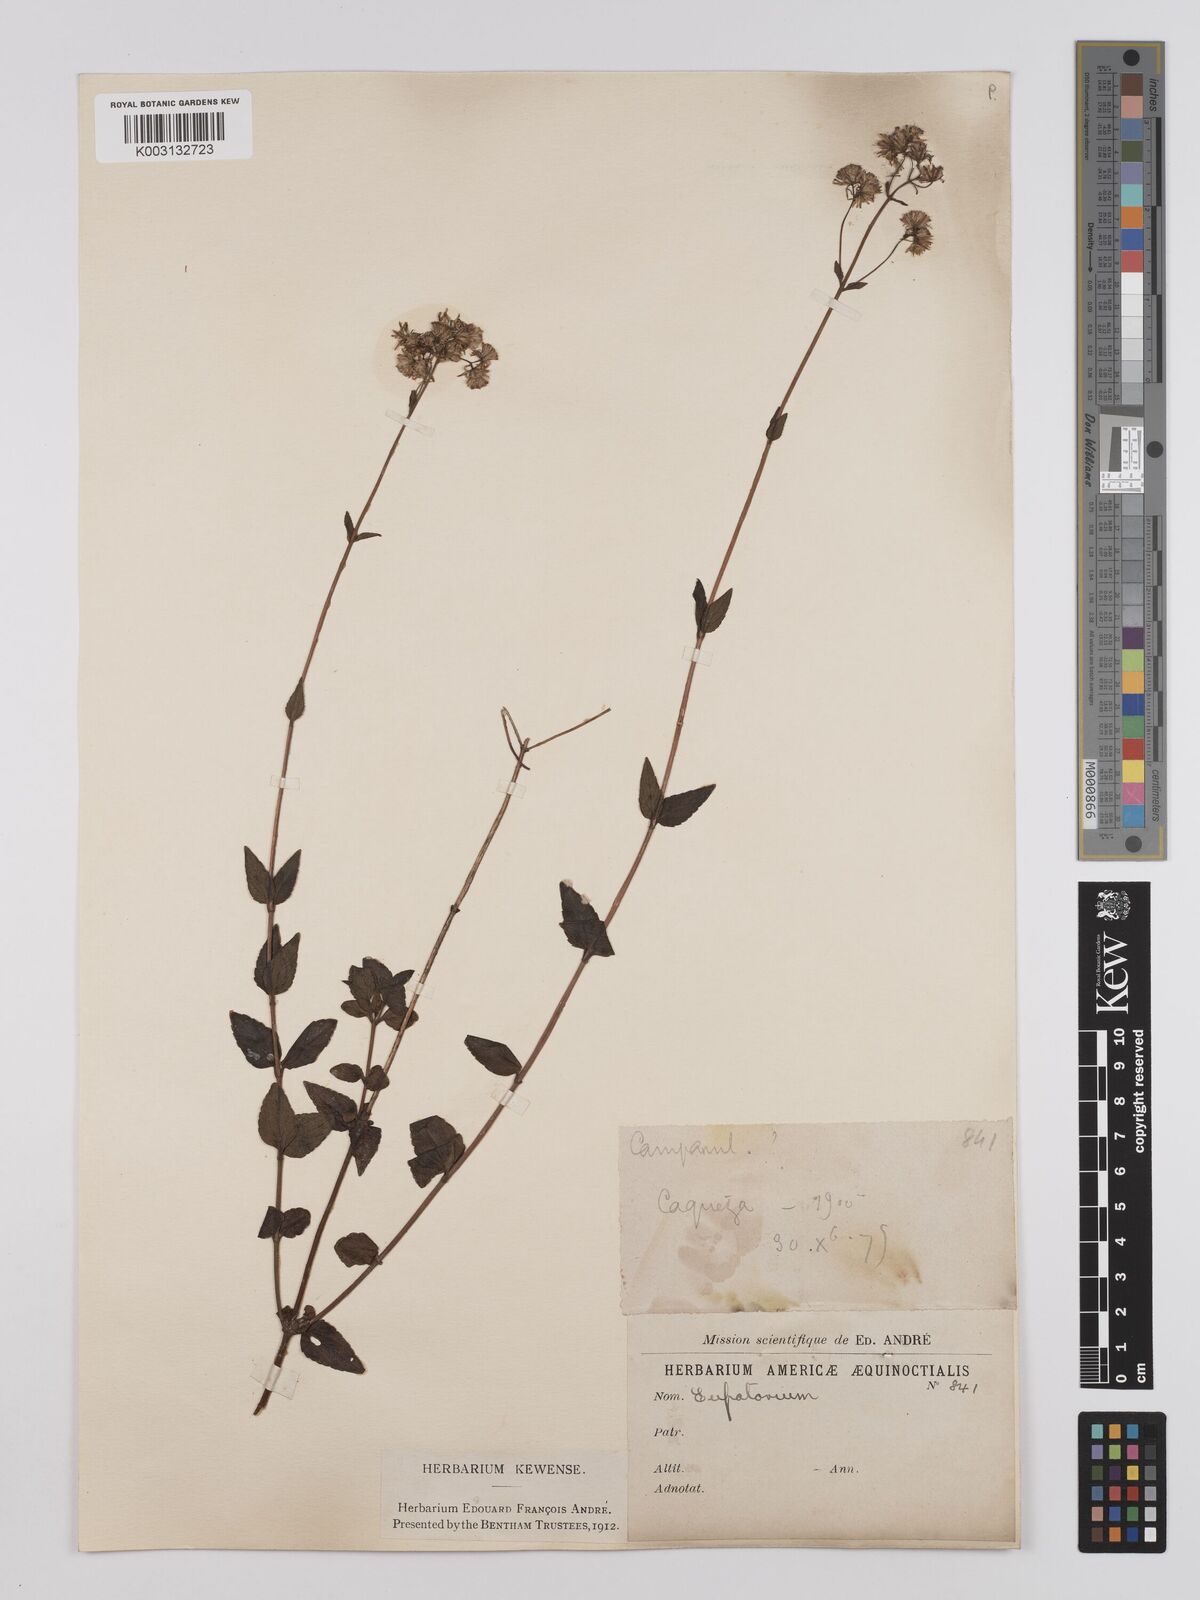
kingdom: Plantae
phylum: Tracheophyta
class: Magnoliopsida
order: Asterales
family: Asteraceae
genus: Ageratina
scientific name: Ageratina gracilis
